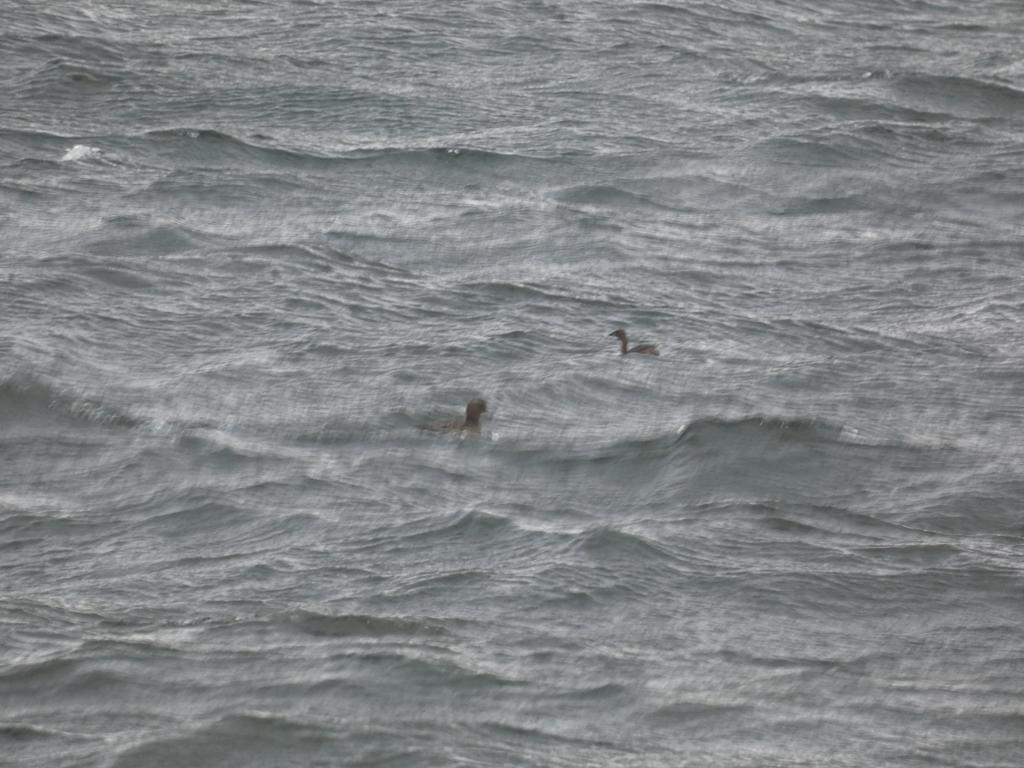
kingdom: Animalia
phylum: Chordata
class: Aves
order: Podicipediformes
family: Podicipedidae
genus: Tachybaptus
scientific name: Tachybaptus ruficollis
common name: Lille lappedykker
